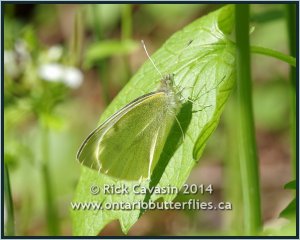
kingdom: Animalia
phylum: Arthropoda
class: Insecta
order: Lepidoptera
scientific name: Lepidoptera
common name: Butterflies
